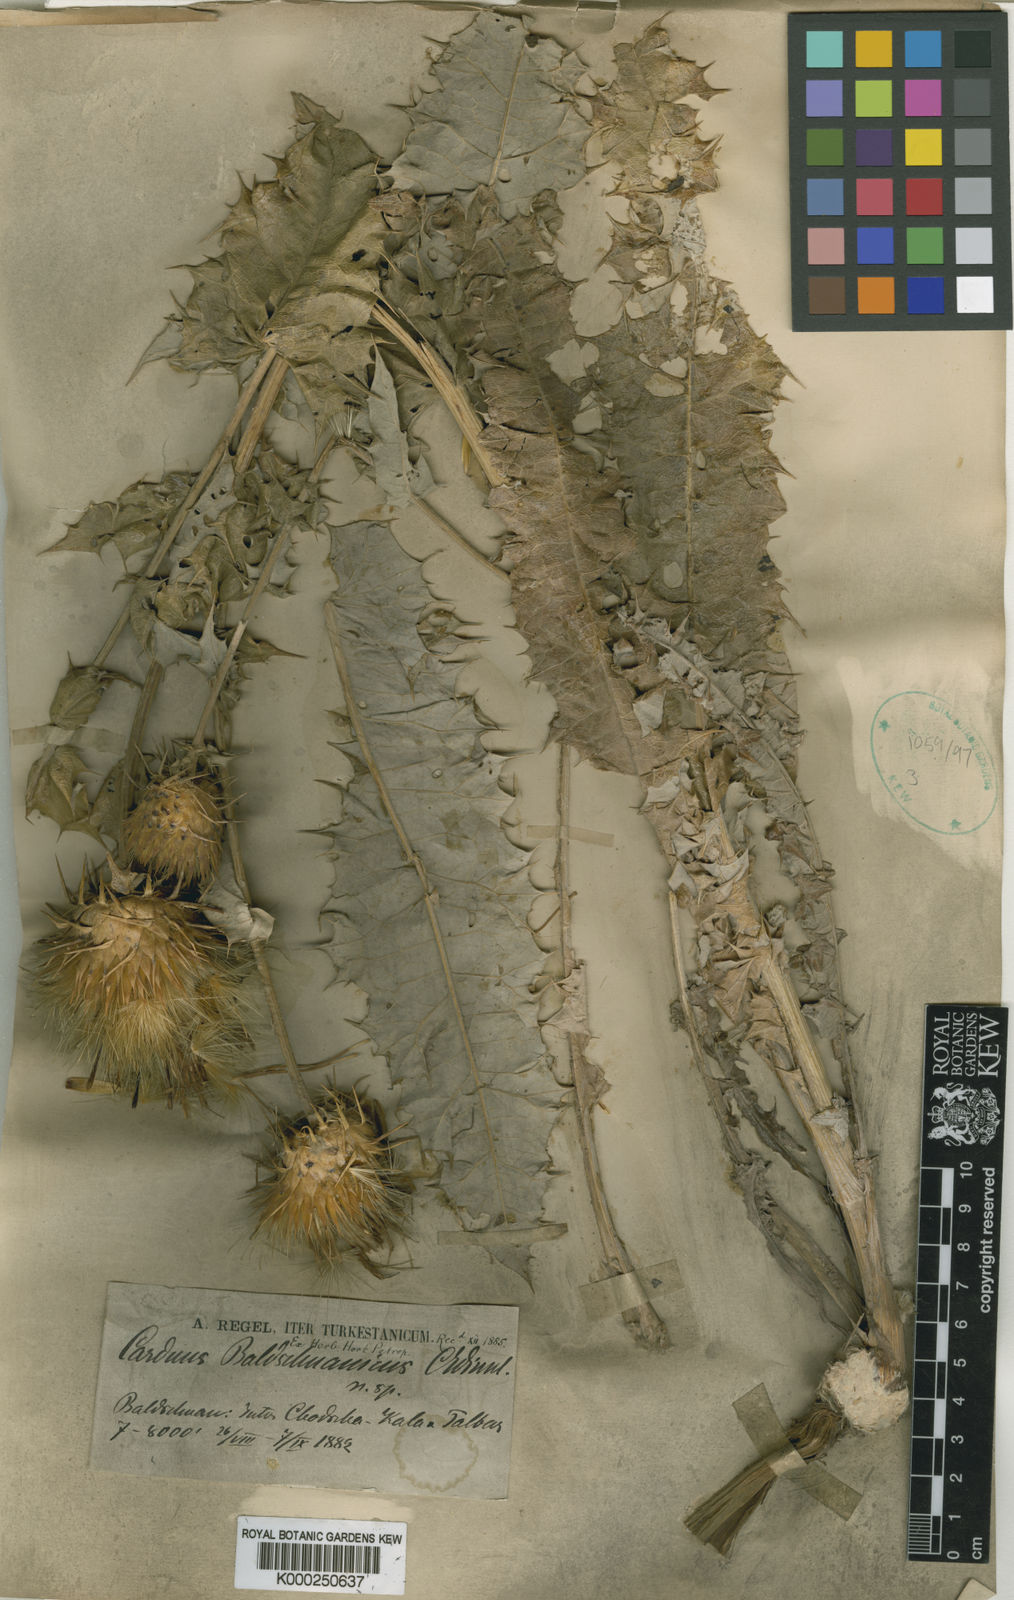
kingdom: Plantae
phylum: Tracheophyta
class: Magnoliopsida
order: Asterales
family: Asteraceae
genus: Olgaea
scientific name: Olgaea baldshuanica
